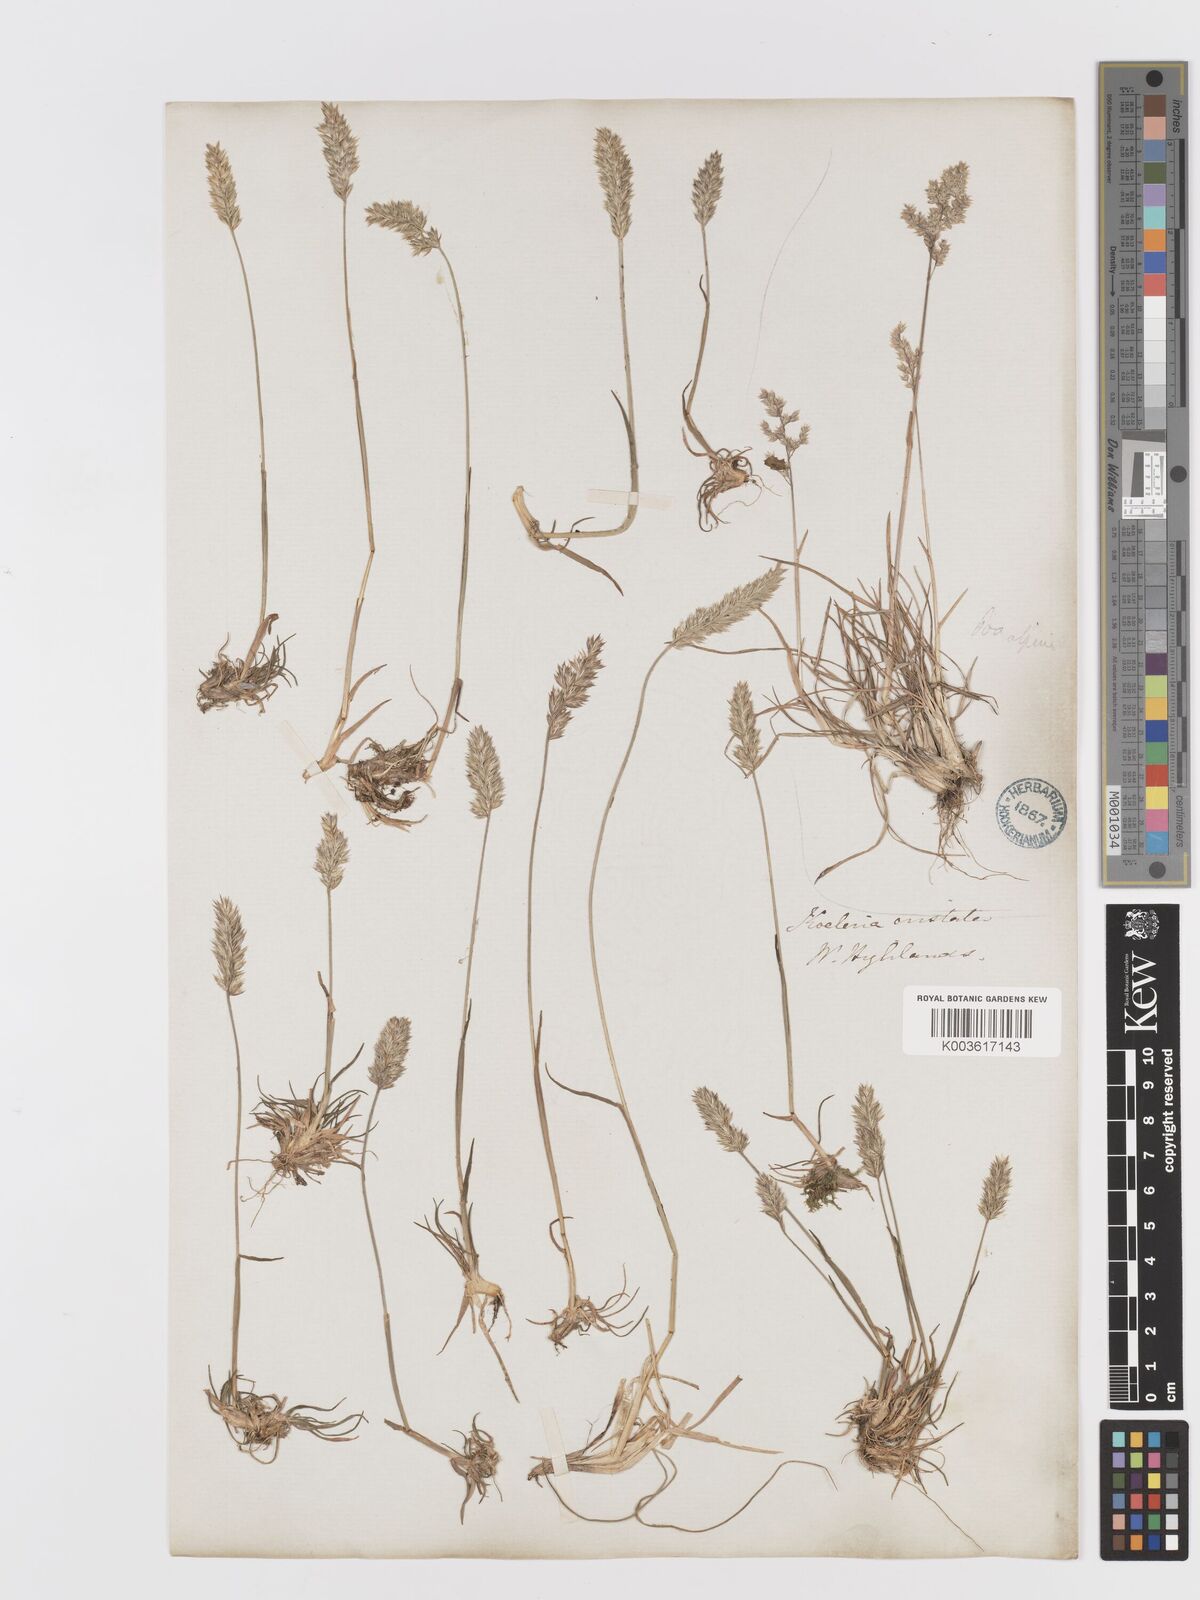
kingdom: Plantae
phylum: Tracheophyta
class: Liliopsida
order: Poales
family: Poaceae
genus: Koeleria
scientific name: Koeleria macrantha
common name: Crested hair-grass
